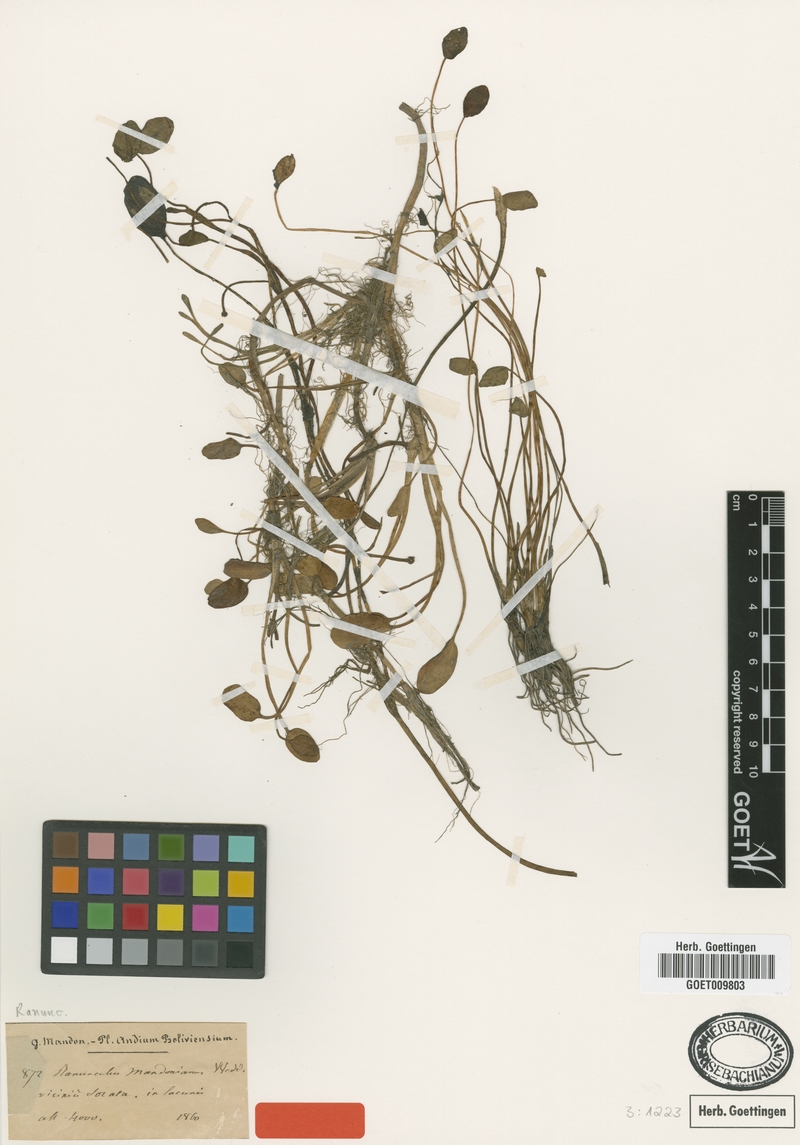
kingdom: Plantae
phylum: Tracheophyta
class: Magnoliopsida
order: Ranunculales
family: Ranunculaceae
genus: Ranunculus
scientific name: Ranunculus mandonianus
